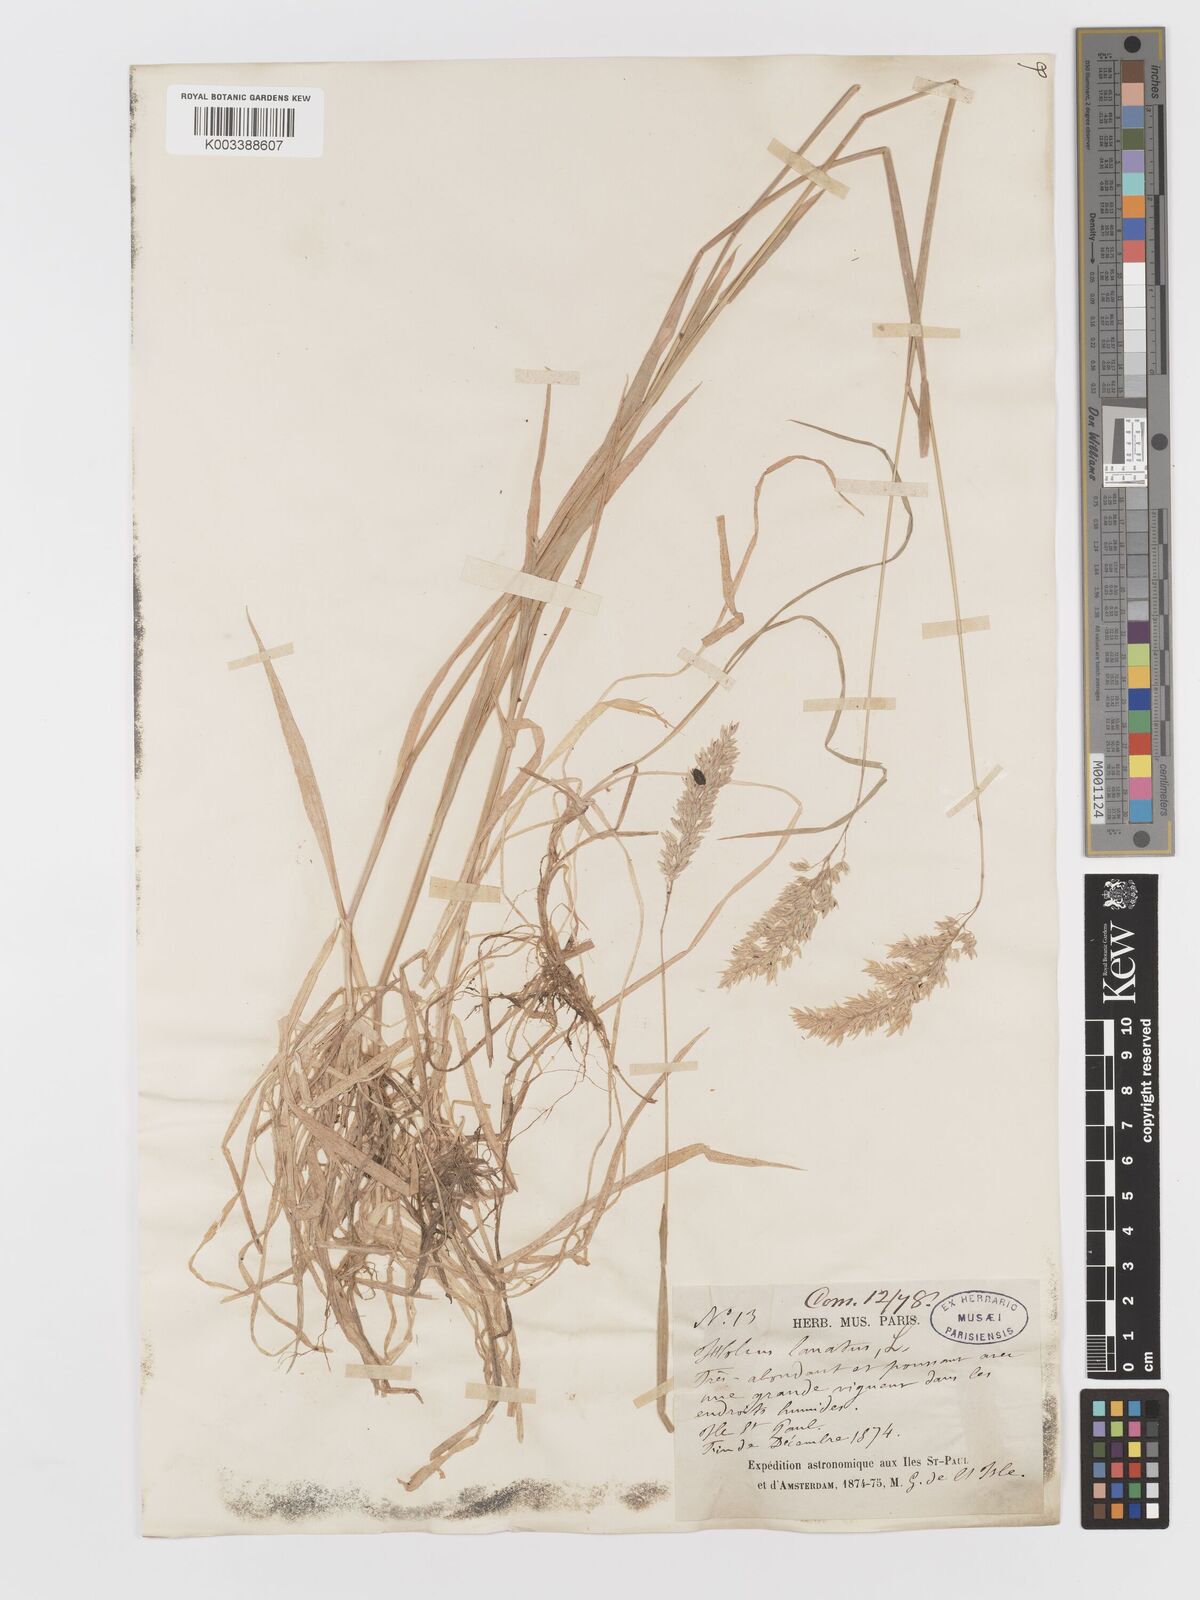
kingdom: Plantae
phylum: Tracheophyta
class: Liliopsida
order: Poales
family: Poaceae
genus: Holcus
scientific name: Holcus lanatus
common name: Yorkshire-fog
